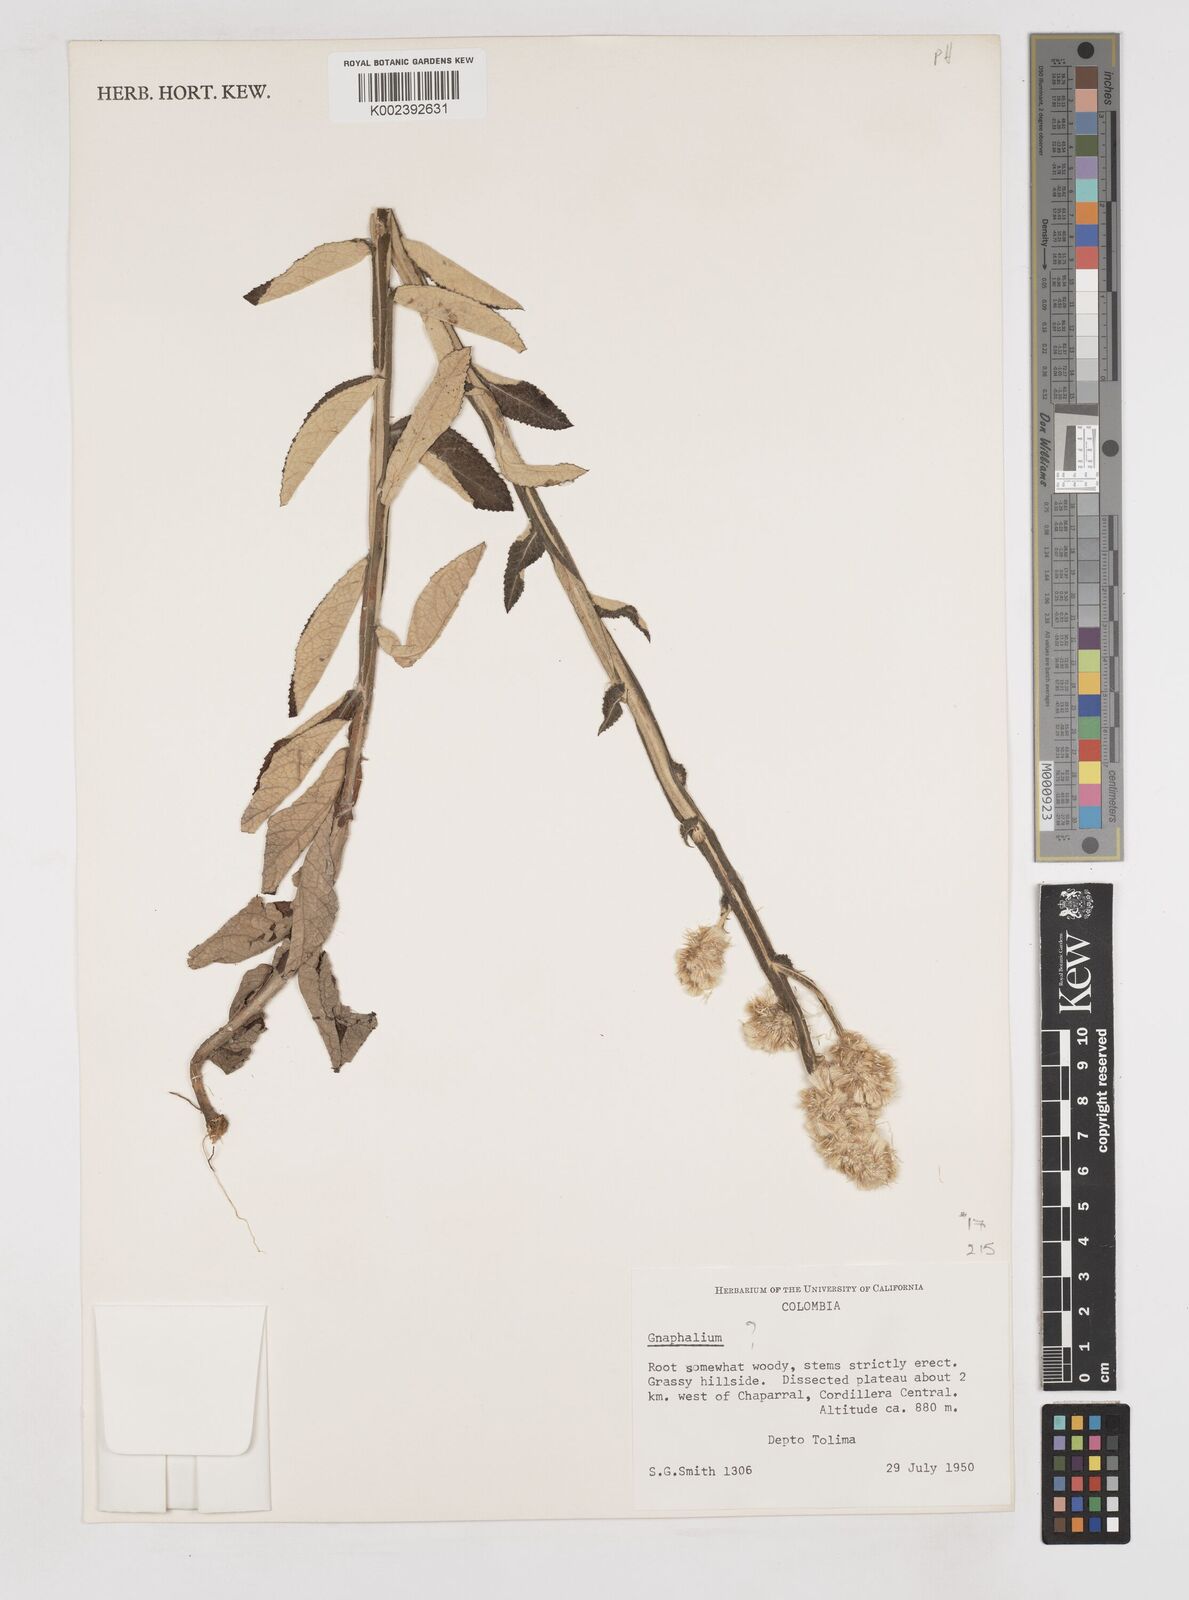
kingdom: Plantae
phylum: Tracheophyta
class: Magnoliopsida
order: Asterales
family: Asteraceae
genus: Gnaphalium
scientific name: Gnaphalium
